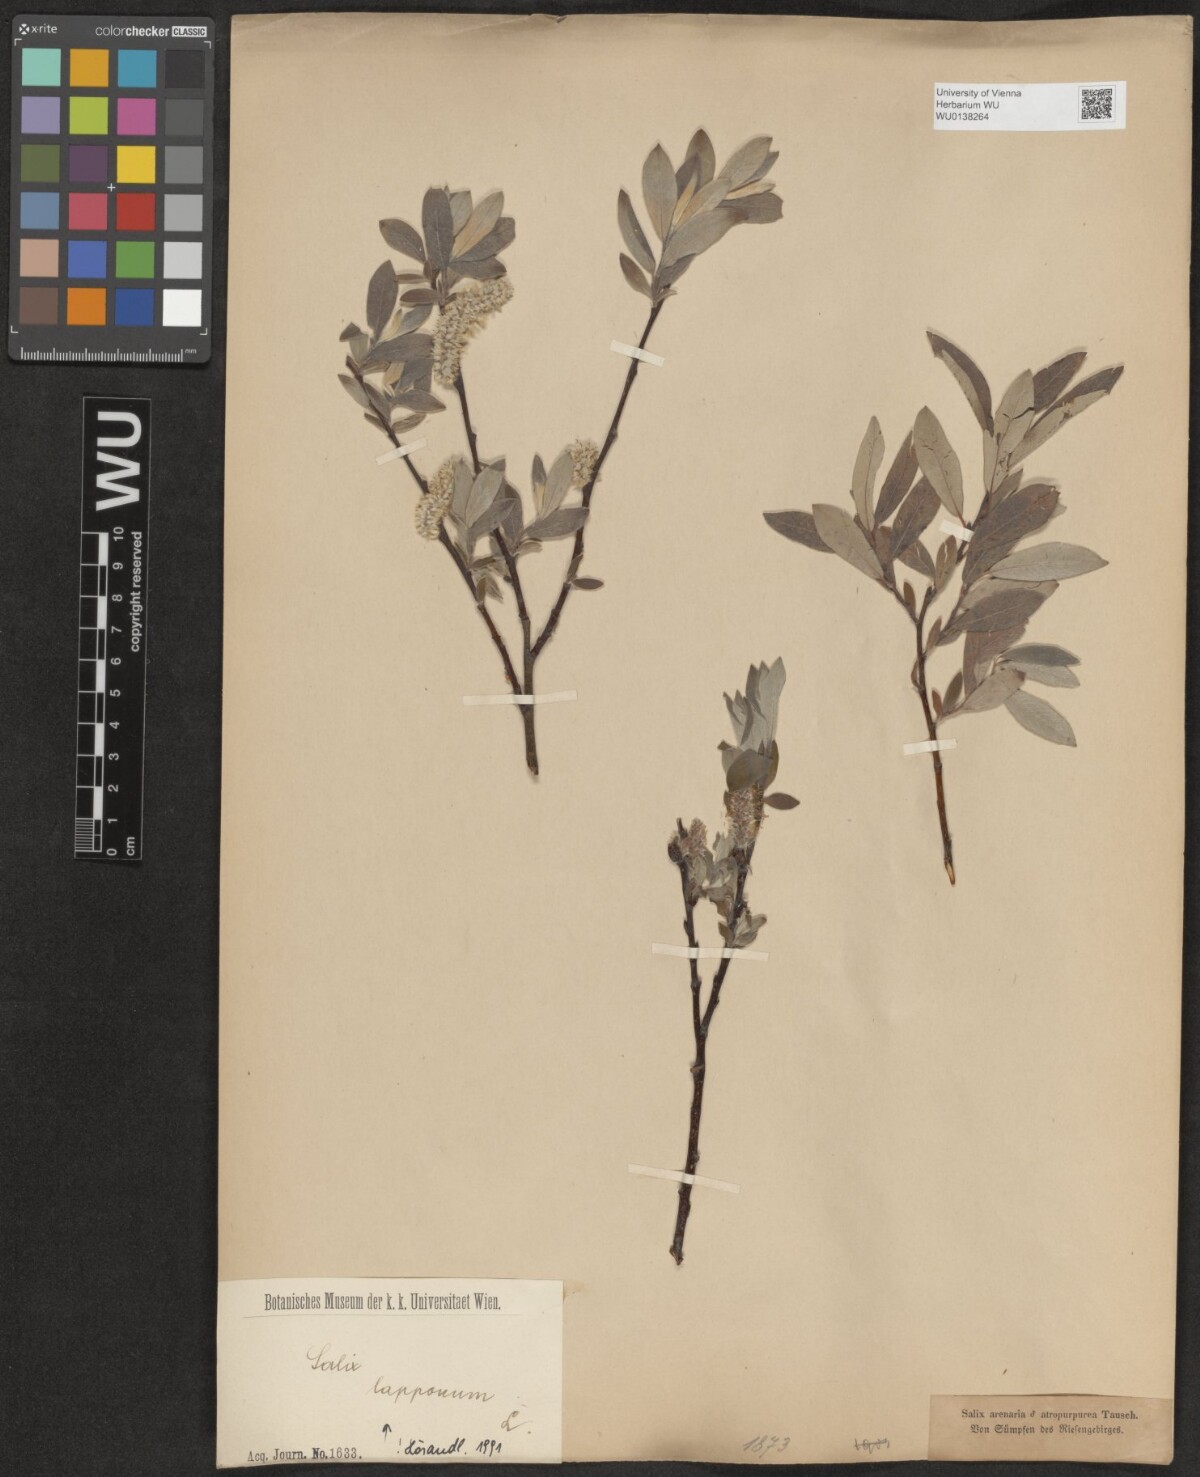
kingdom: Plantae
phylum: Tracheophyta
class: Magnoliopsida
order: Malpighiales
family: Salicaceae
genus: Salix
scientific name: Salix lapponum
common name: Downy willow
